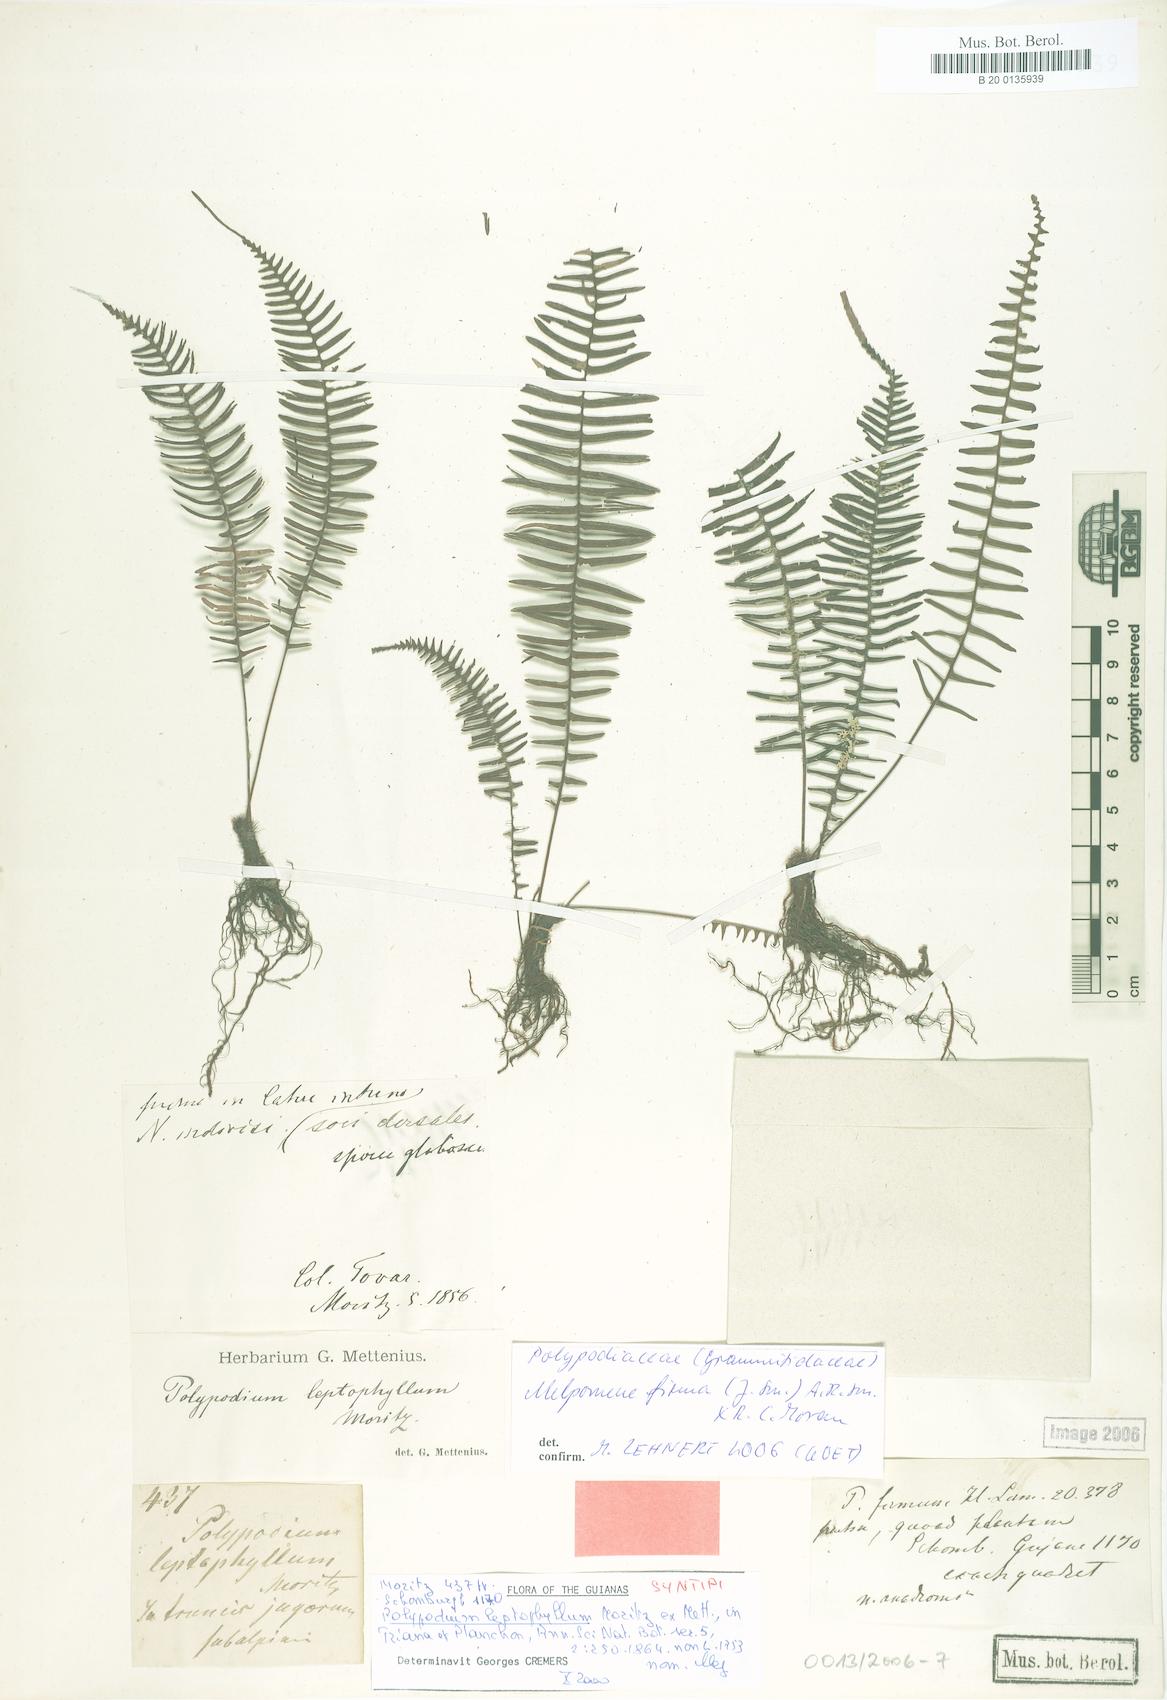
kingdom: Plantae
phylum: Tracheophyta
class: Polypodiopsida
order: Polypodiales
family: Polypodiaceae
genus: Melpomene
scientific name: Melpomene firma
